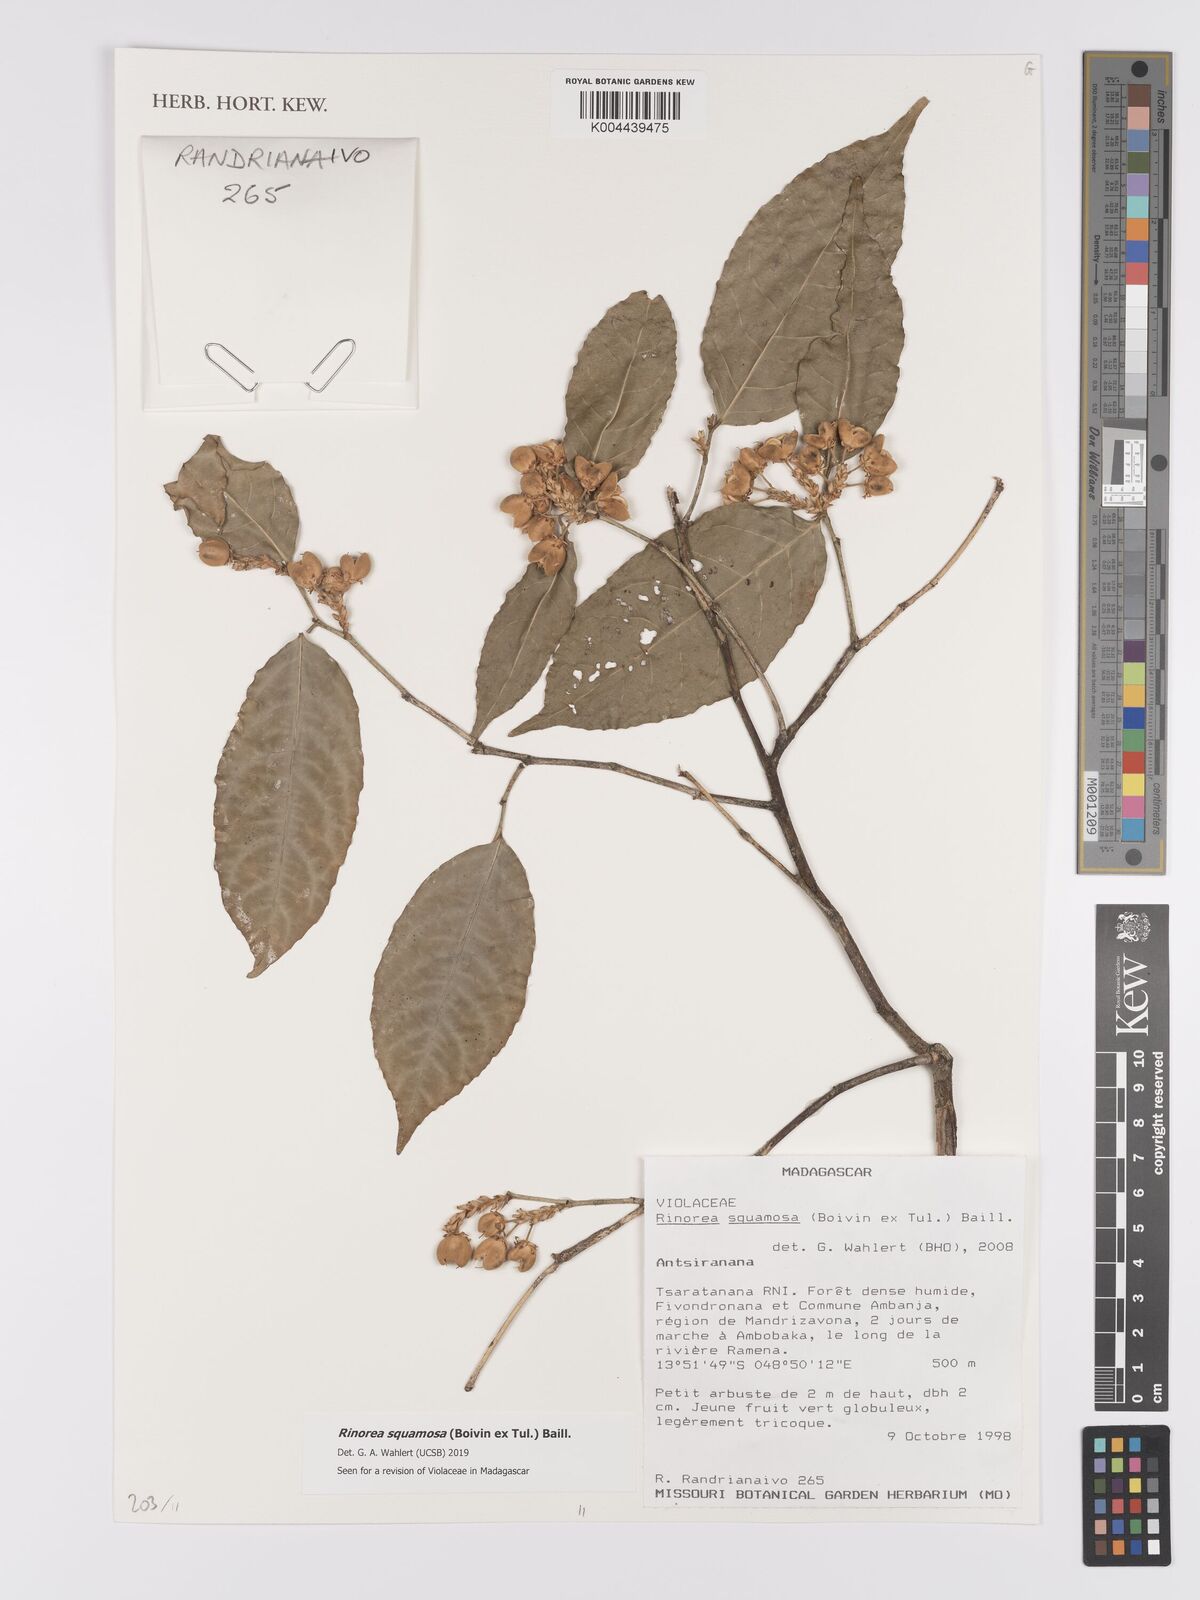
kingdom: Plantae
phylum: Tracheophyta
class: Magnoliopsida
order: Malpighiales
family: Violaceae
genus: Rinorea
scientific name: Rinorea squamosa
